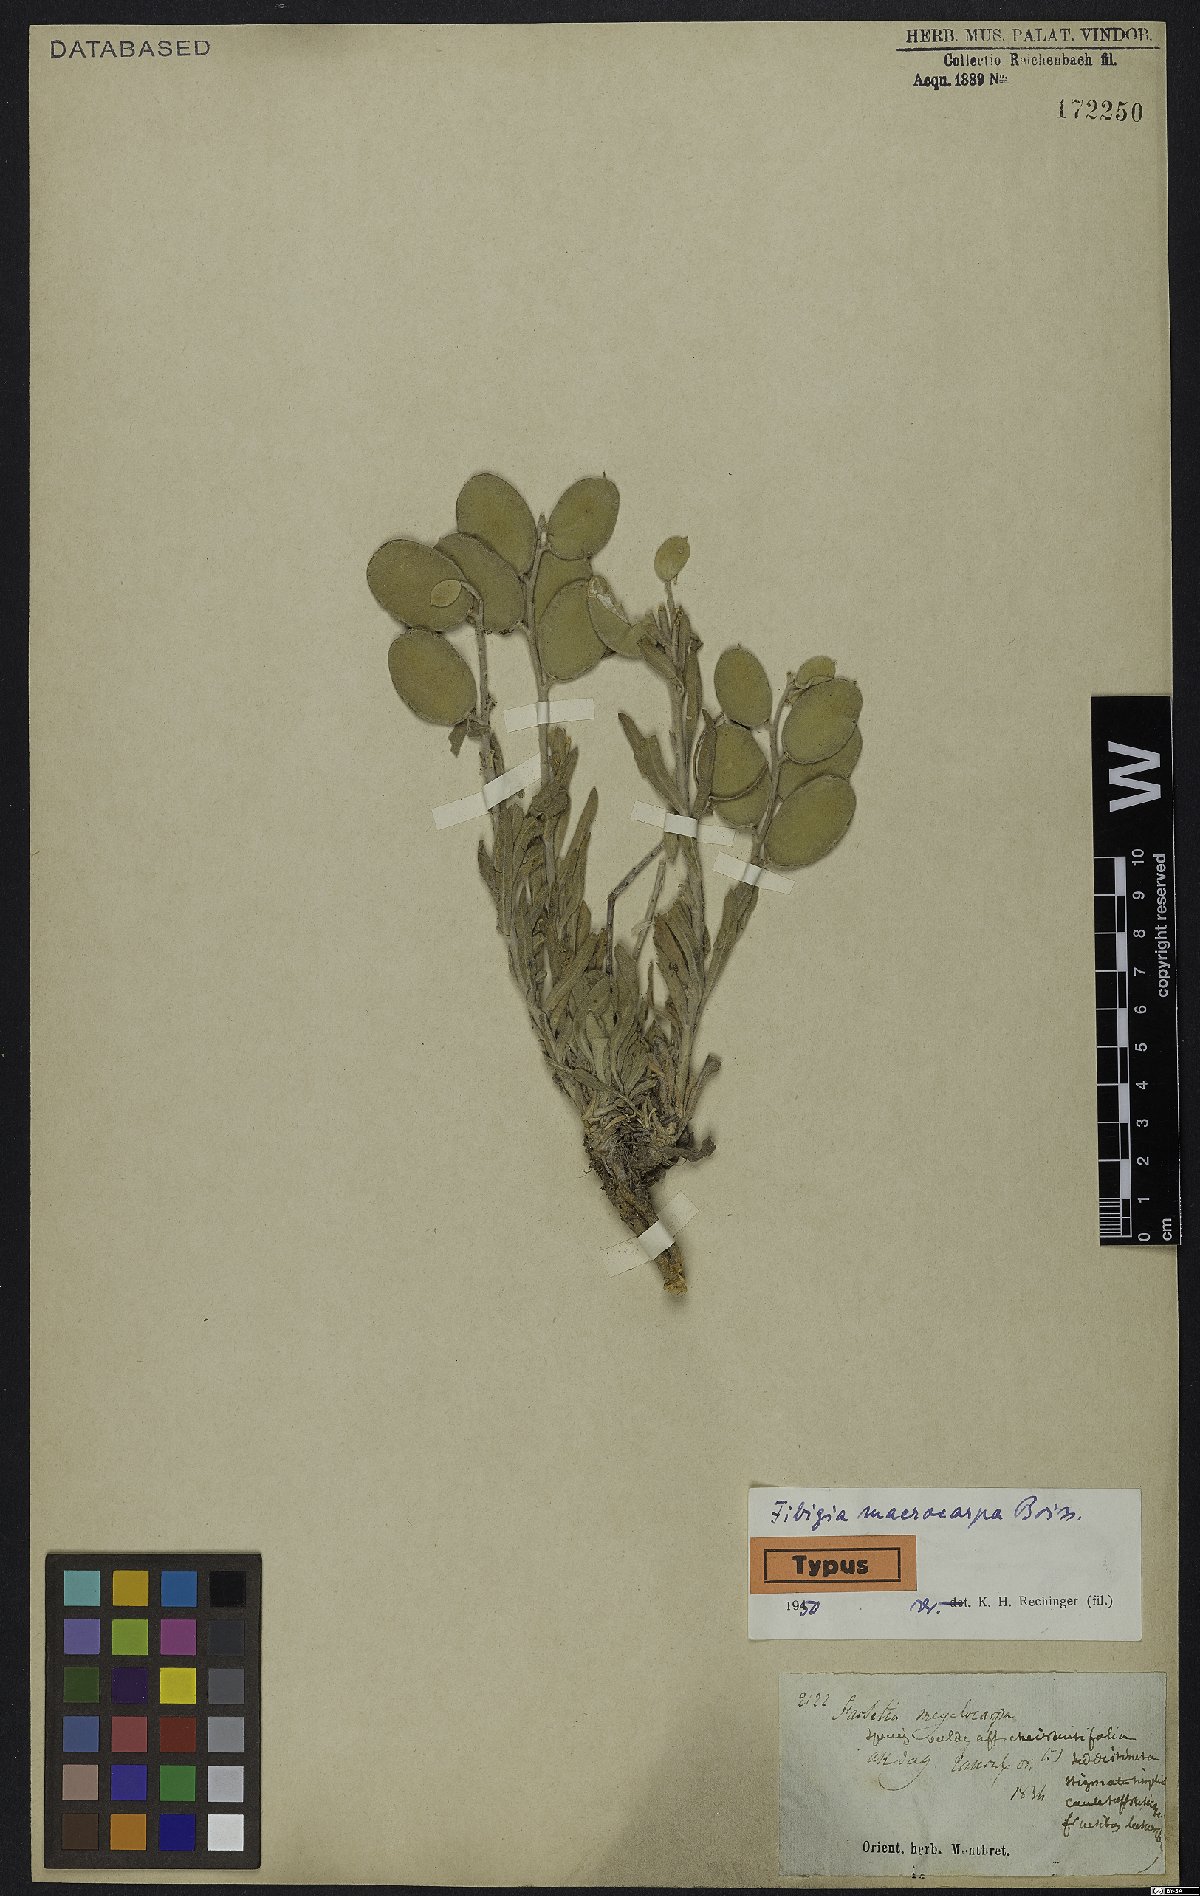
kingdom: Plantae
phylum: Tracheophyta
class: Magnoliopsida
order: Brassicales
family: Brassicaceae
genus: Fibigia
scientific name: Fibigia macrocarpa
